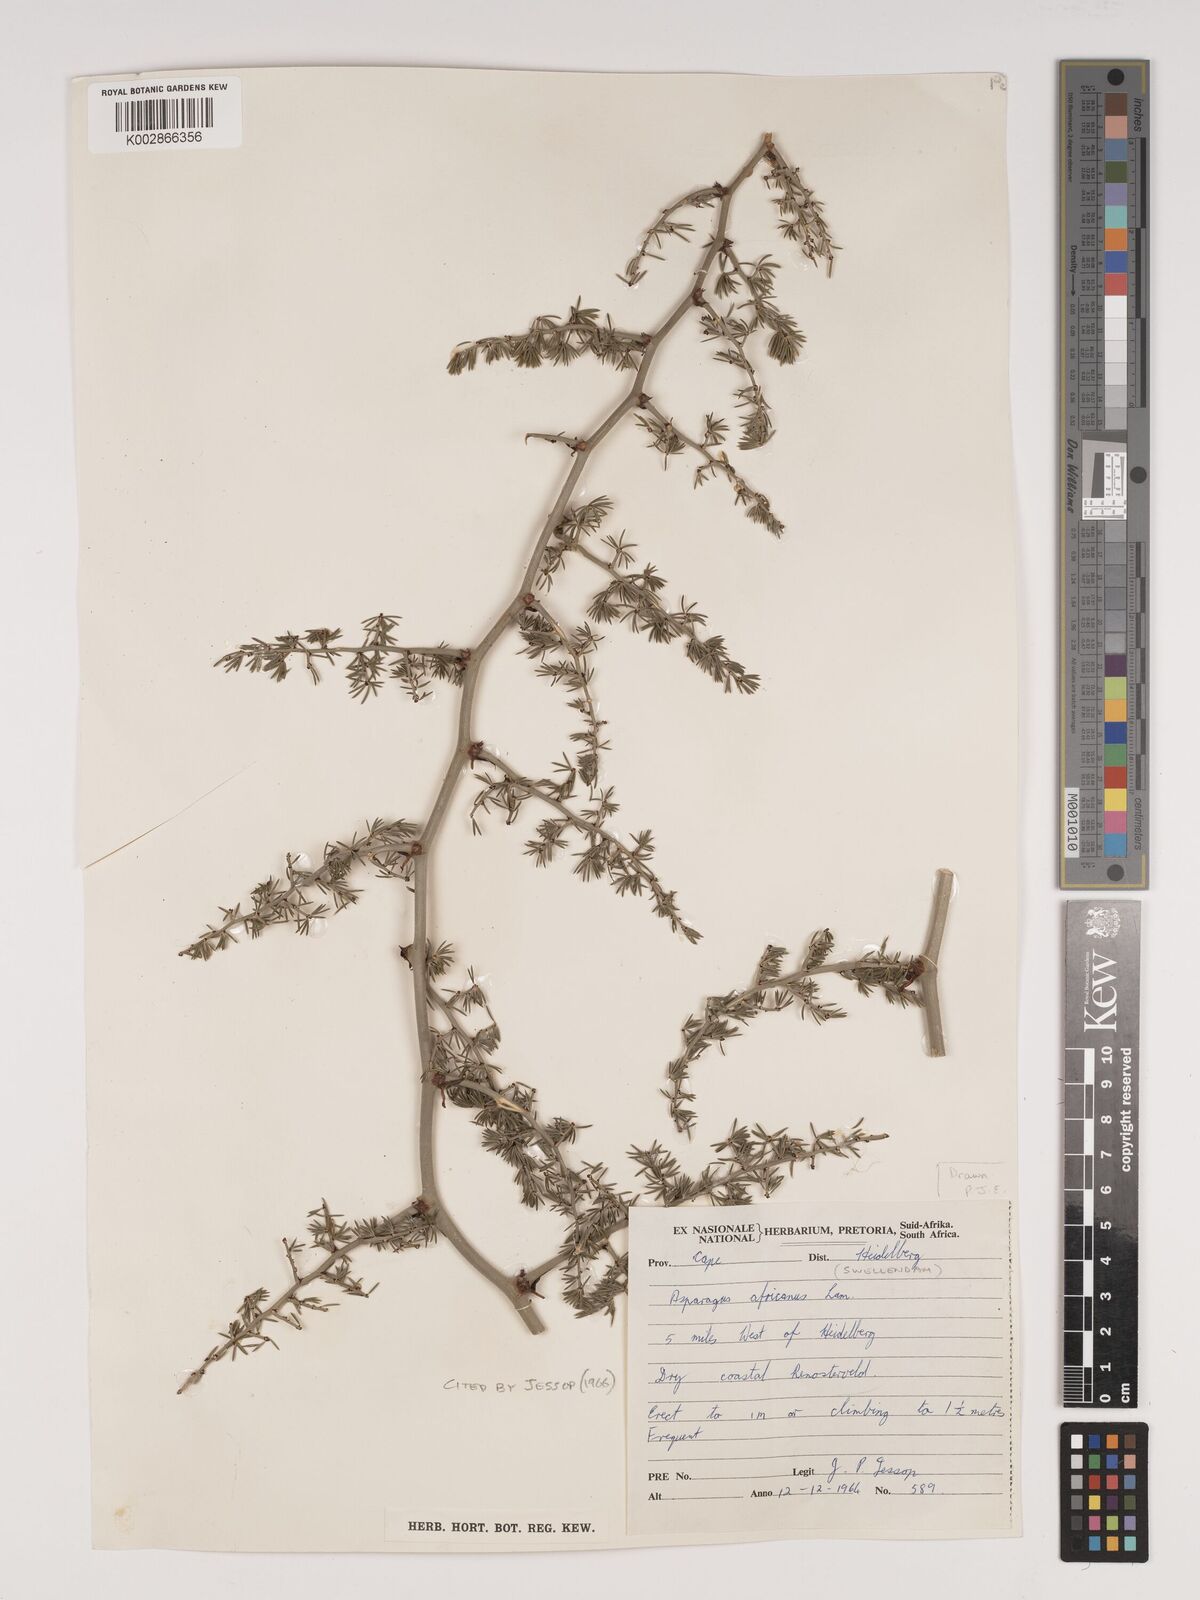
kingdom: Plantae
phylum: Tracheophyta
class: Liliopsida
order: Asparagales
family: Asparagaceae
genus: Asparagus
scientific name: Asparagus africanus
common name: Asparagus-fern
